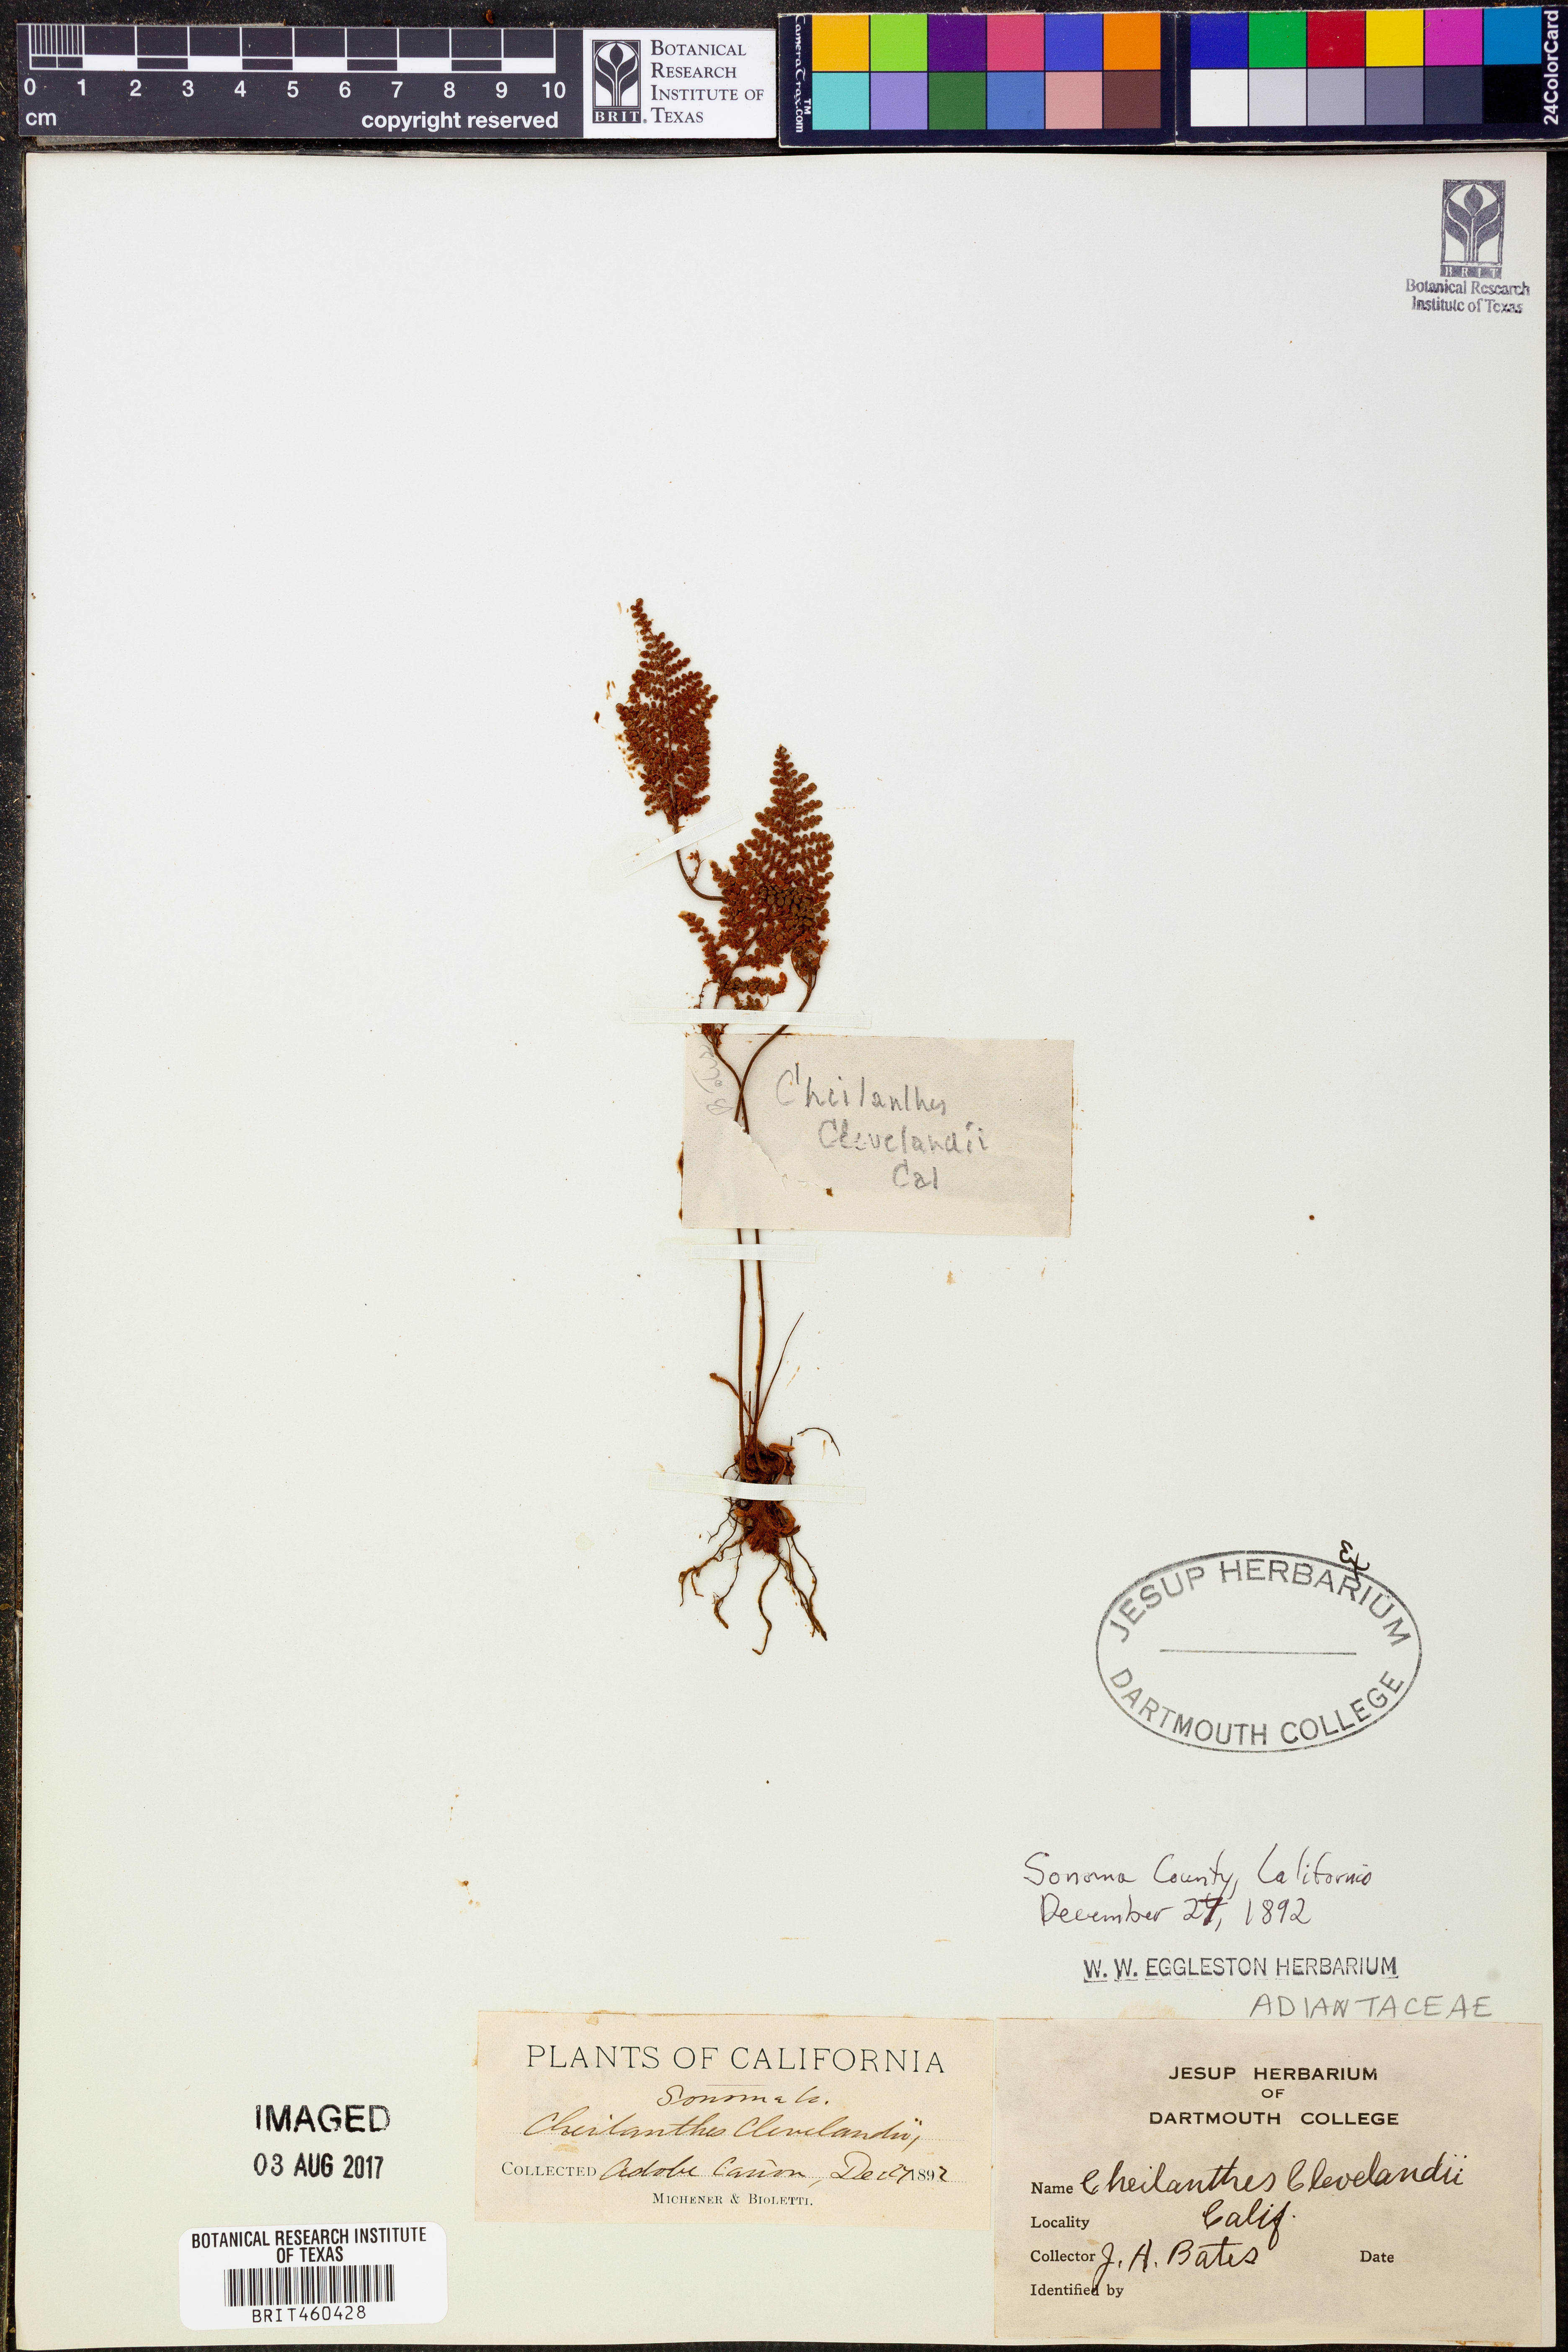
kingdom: Plantae
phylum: Tracheophyta
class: Polypodiopsida
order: Polypodiales
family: Pteridaceae
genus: Myriopteris
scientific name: Myriopteris clevelandii
